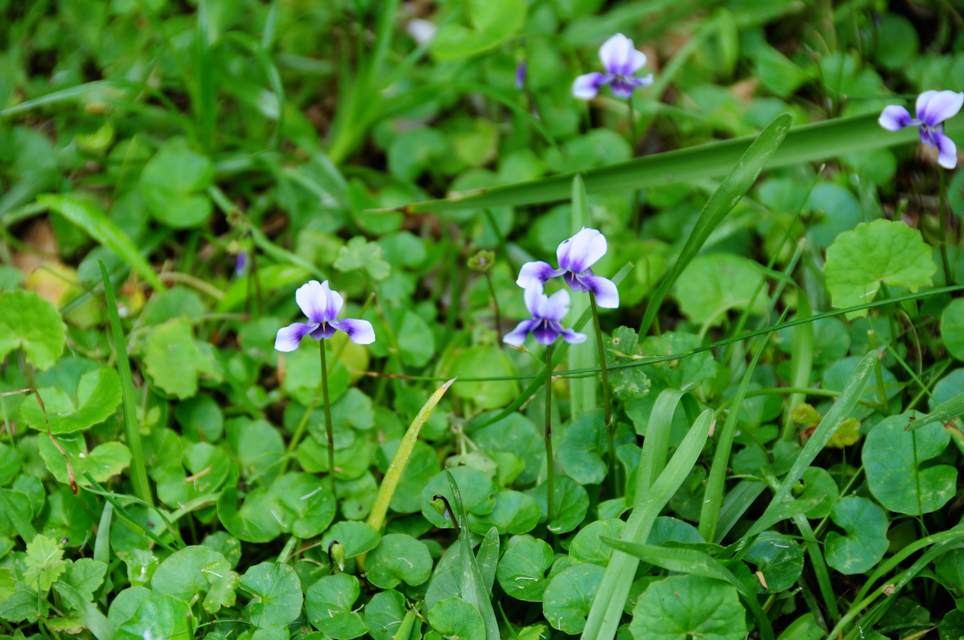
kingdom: Plantae
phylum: Tracheophyta
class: Magnoliopsida
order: Malpighiales
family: Violaceae
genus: Viola
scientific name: Viola banksii
